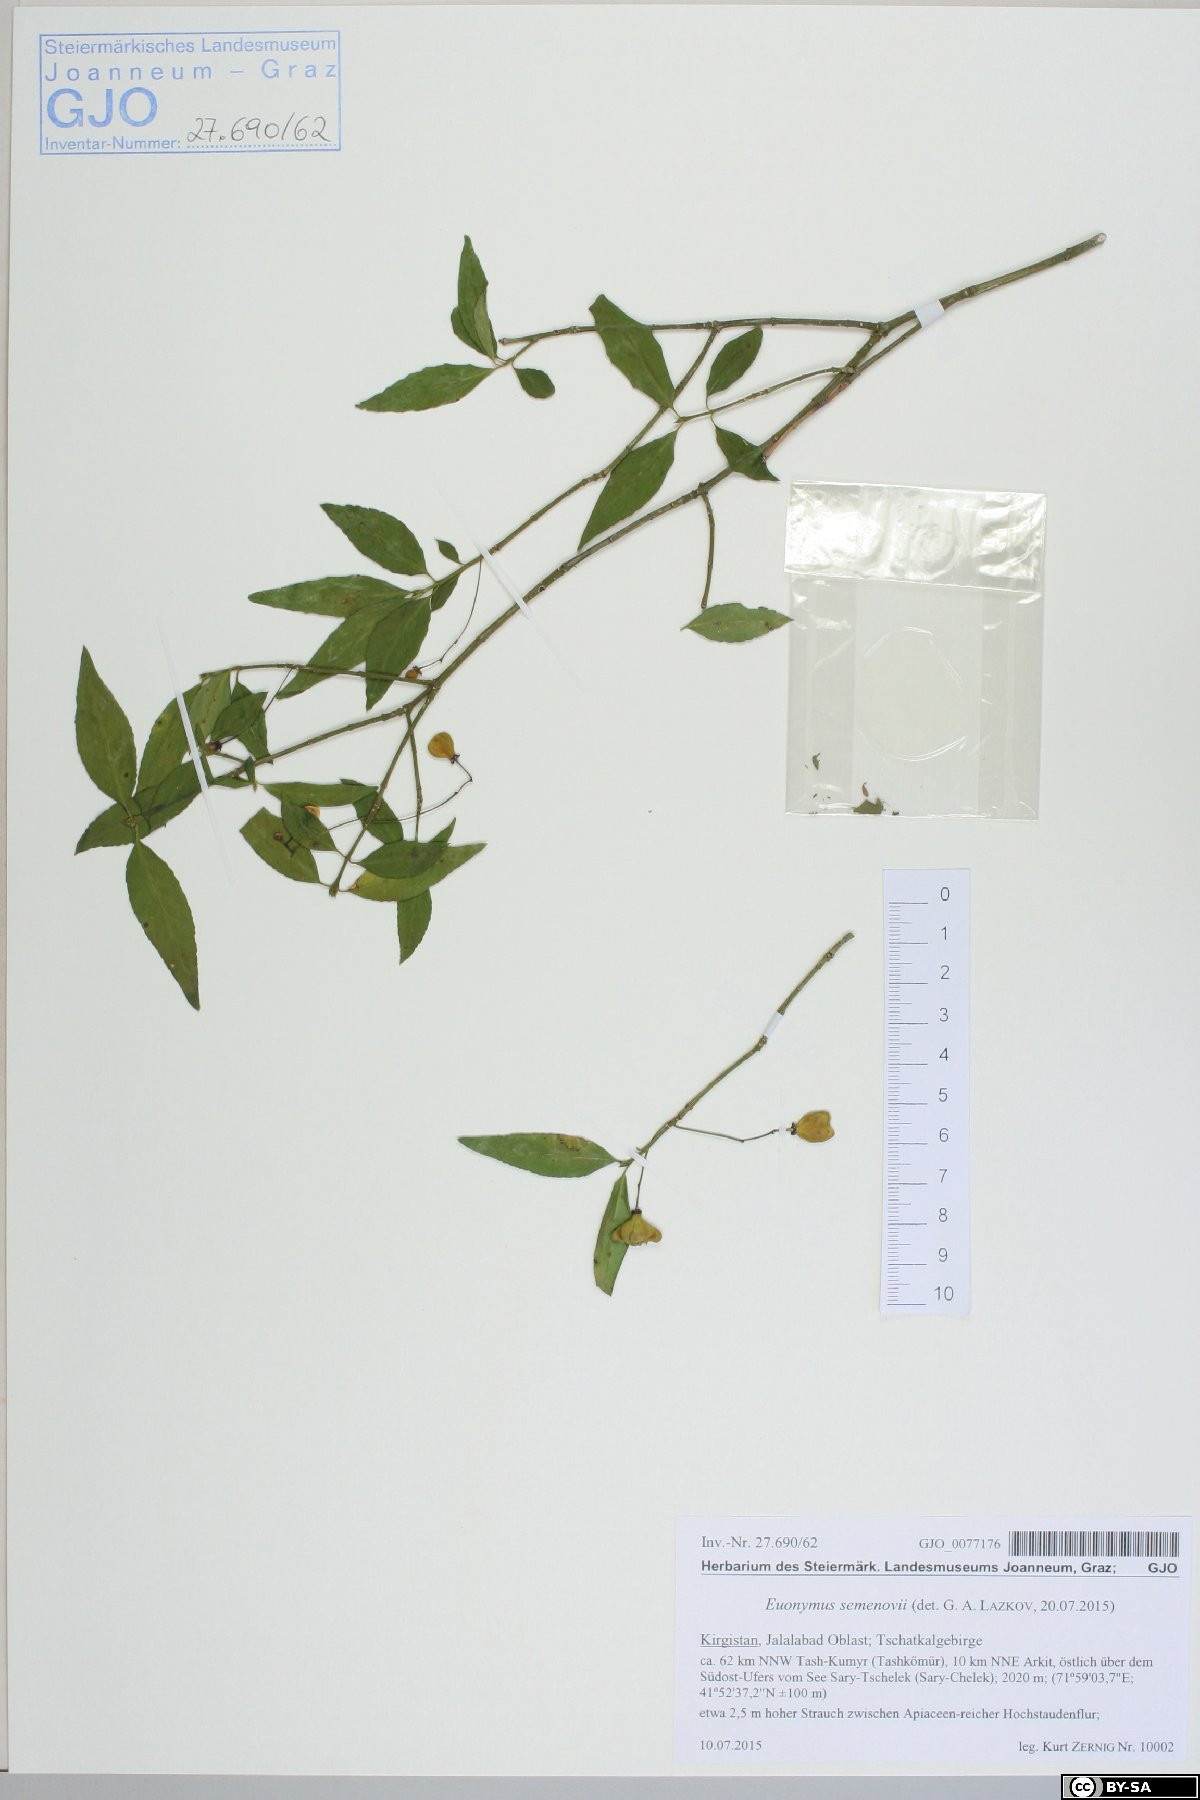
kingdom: Plantae
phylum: Tracheophyta
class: Magnoliopsida
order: Celastrales
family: Celastraceae
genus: Euonymus
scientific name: Euonymus semenovii
